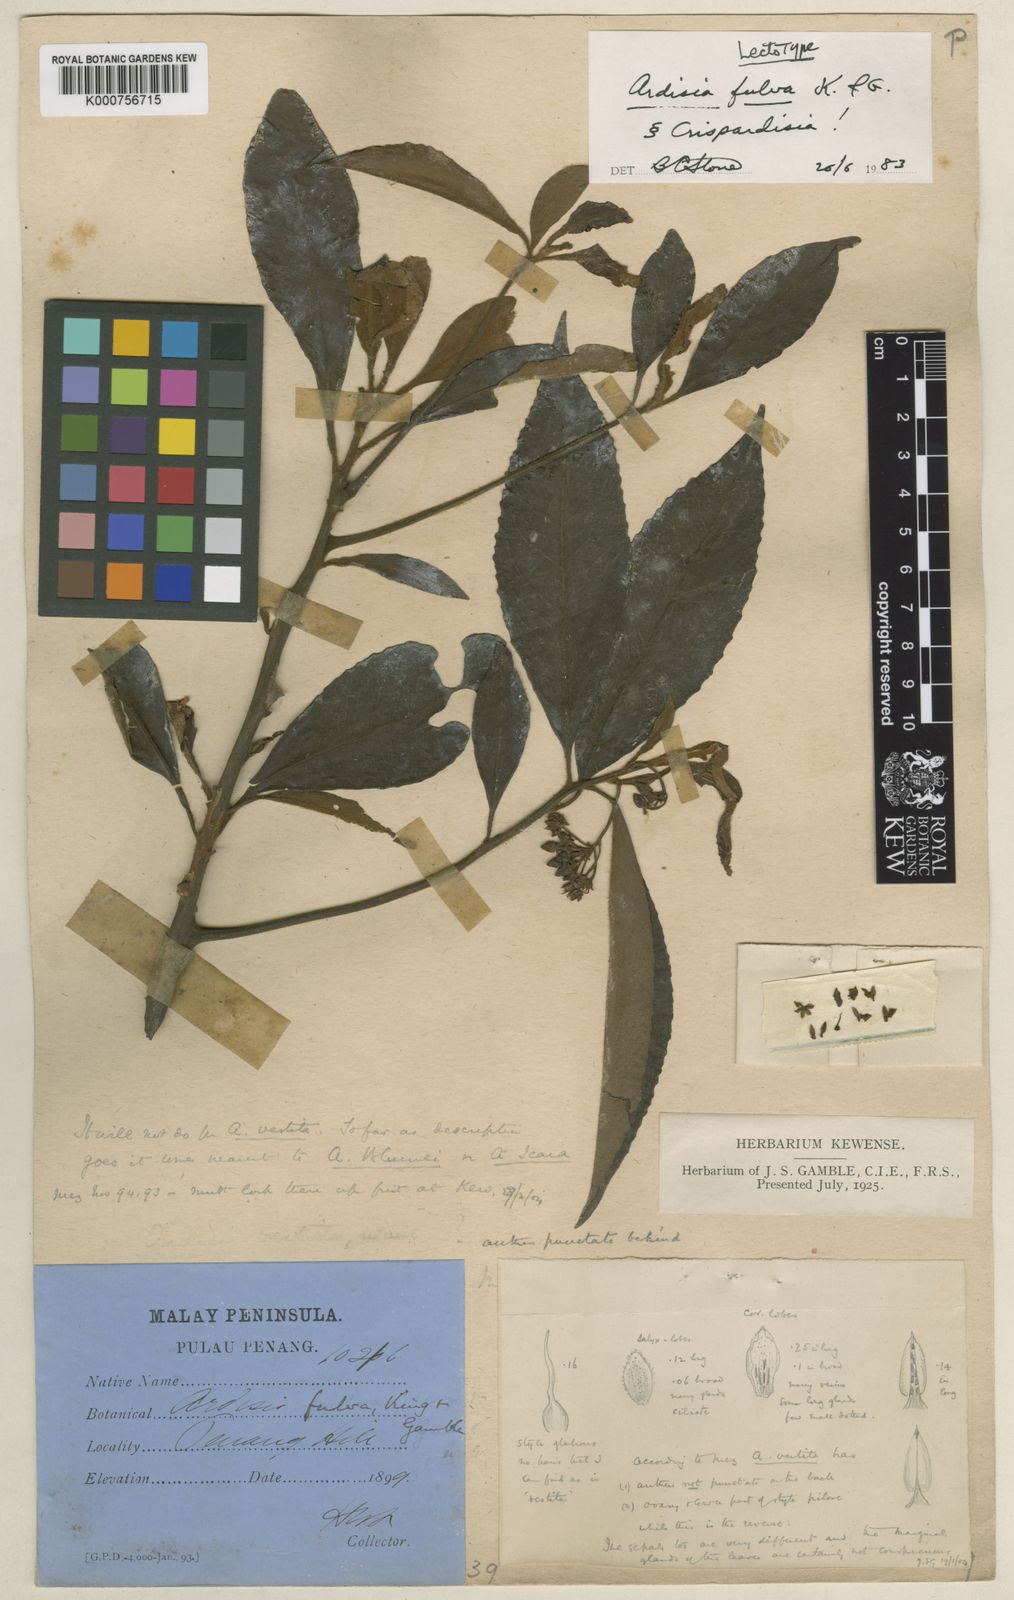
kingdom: Plantae
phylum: Tracheophyta
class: Magnoliopsida
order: Ericales
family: Primulaceae
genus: Ardisia
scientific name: Ardisia fulva
